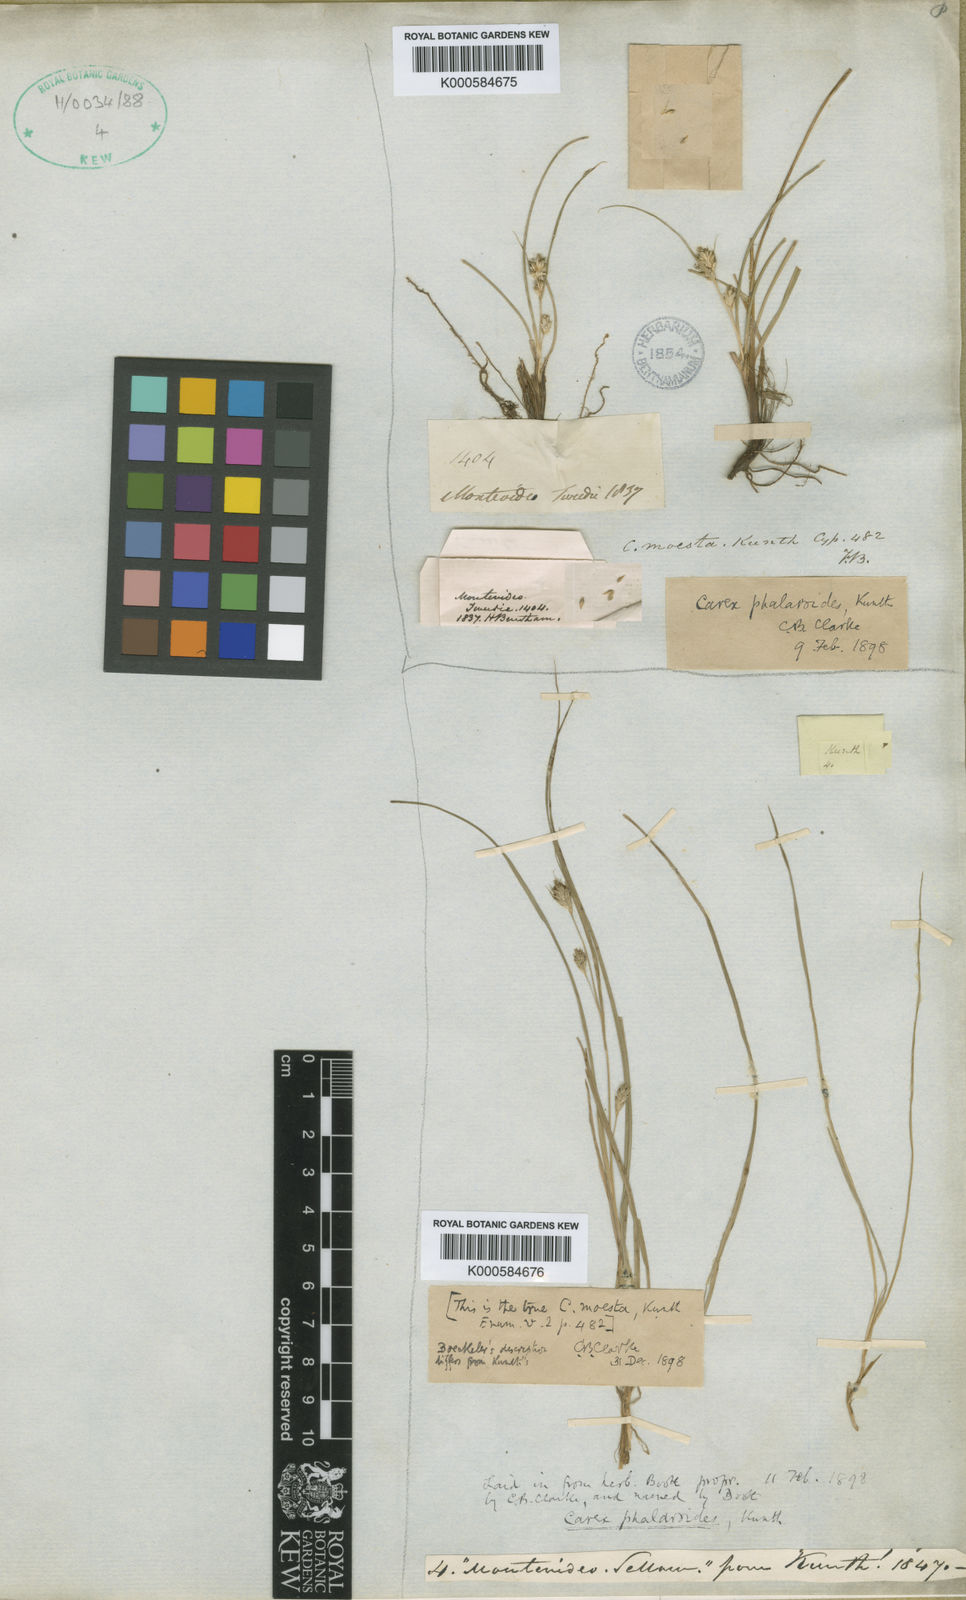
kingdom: Plantae
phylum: Tracheophyta
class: Liliopsida
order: Poales
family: Cyperaceae
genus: Carex
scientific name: Carex phalaroides
